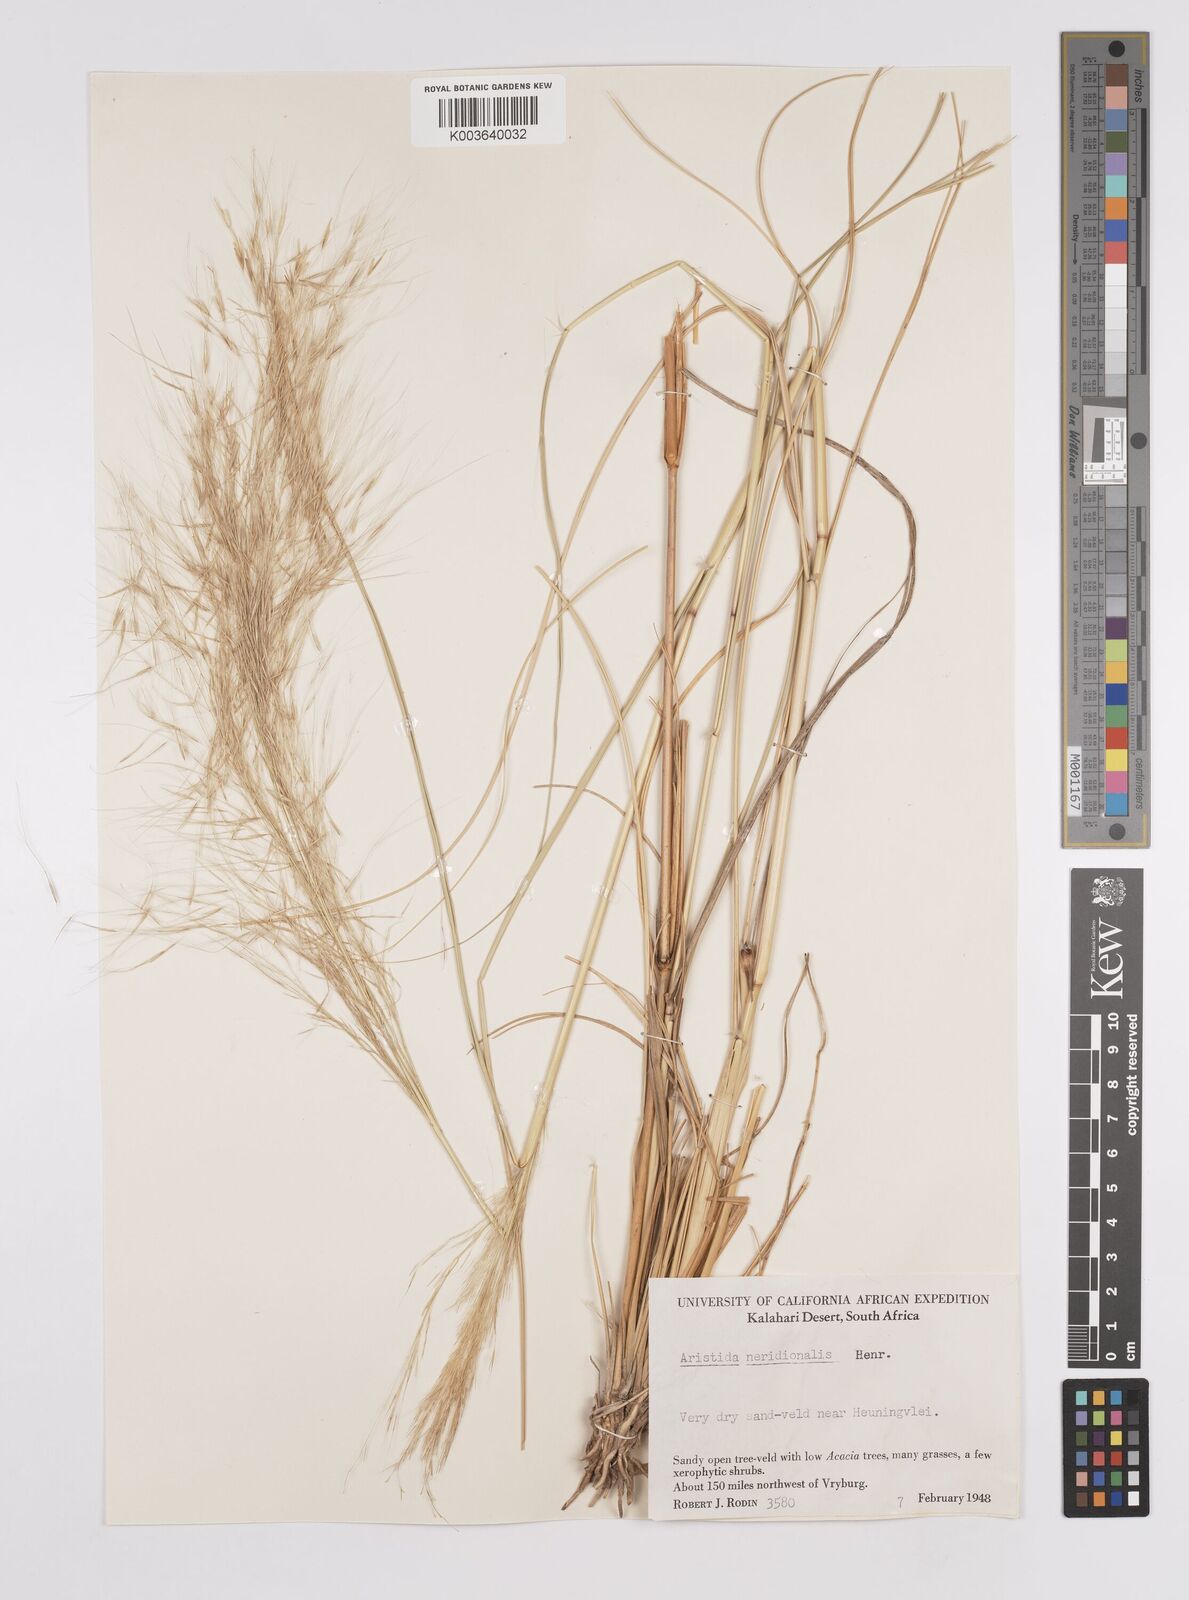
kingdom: Plantae
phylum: Tracheophyta
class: Liliopsida
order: Poales
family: Poaceae
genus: Aristida
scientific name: Aristida meridionalis
